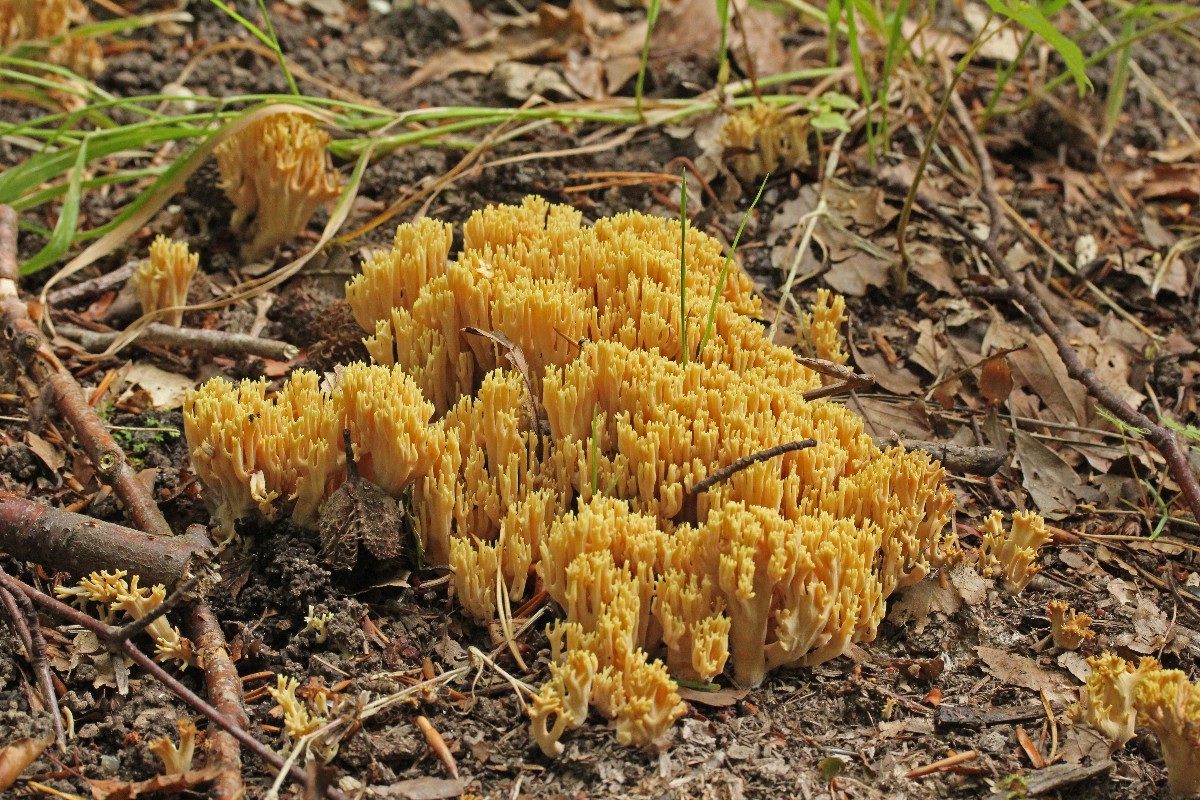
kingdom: Fungi
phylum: Basidiomycota
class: Agaricomycetes
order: Gomphales
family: Gomphaceae
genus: Ramaria
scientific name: Ramaria stricta
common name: rank koralsvamp
